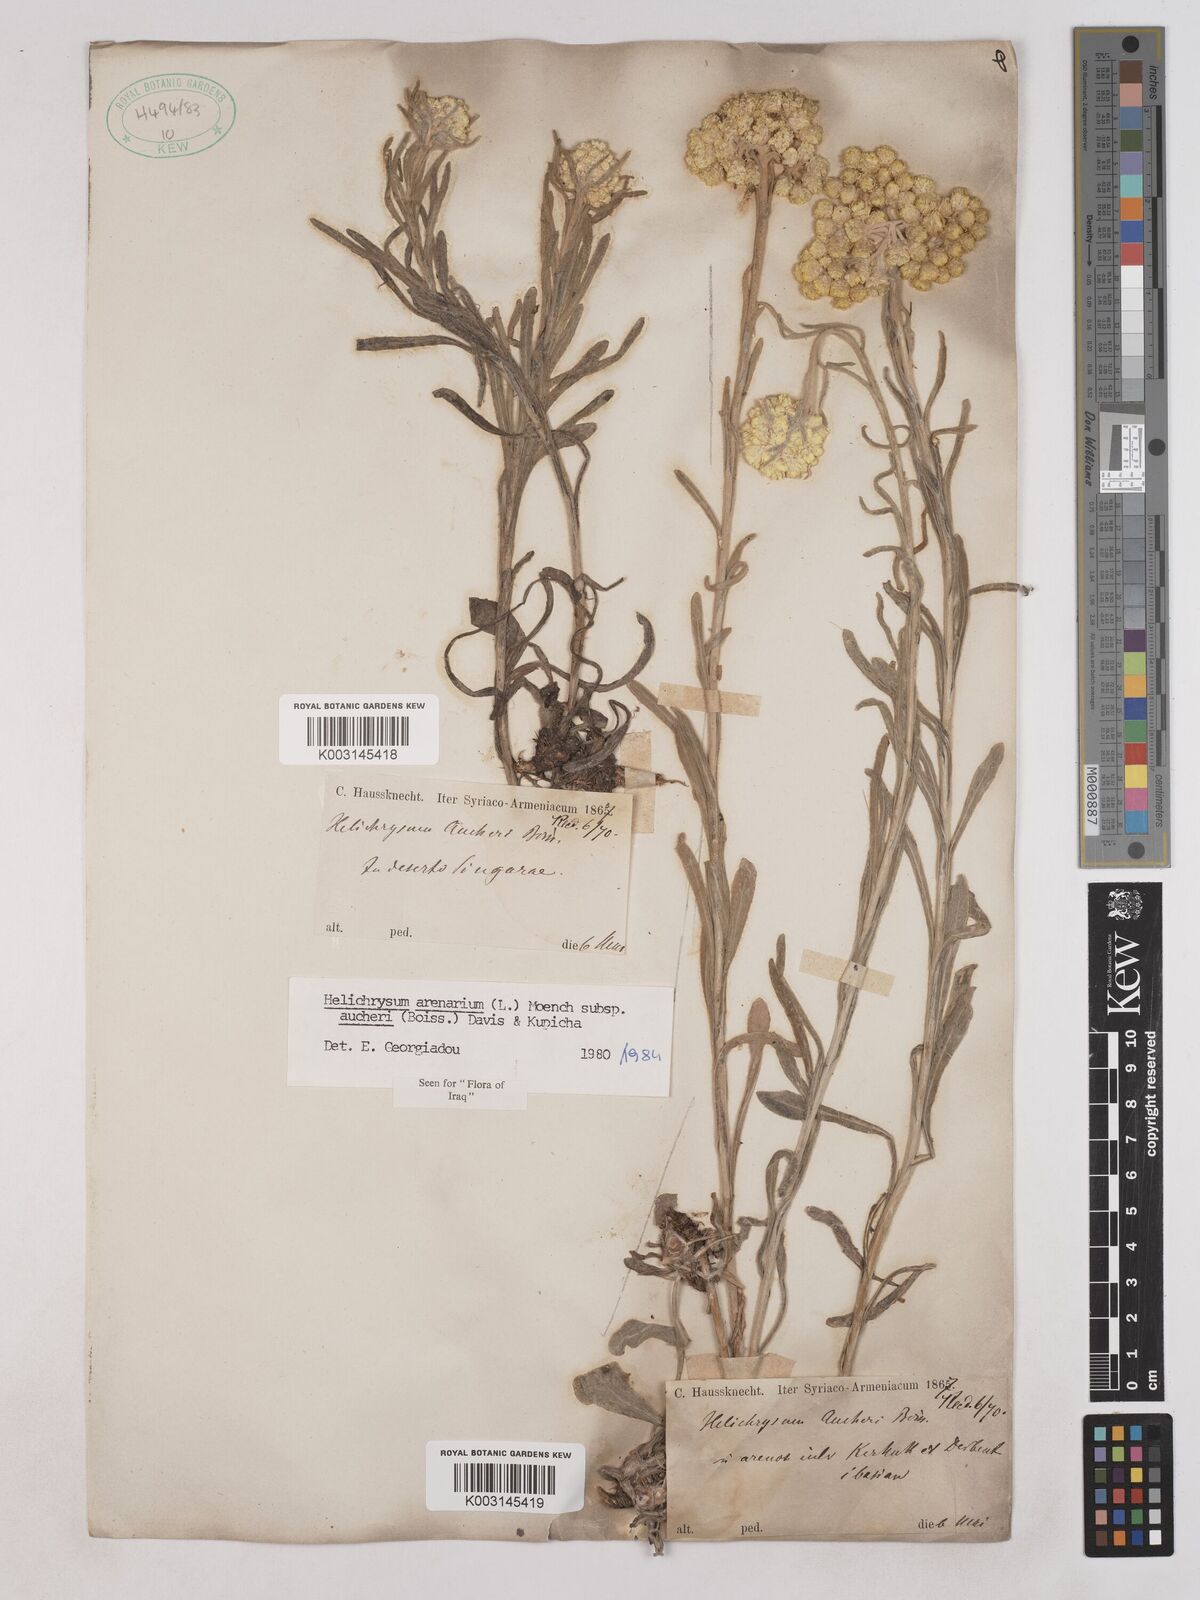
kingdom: Plantae
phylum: Tracheophyta
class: Magnoliopsida
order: Asterales
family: Asteraceae
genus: Helichrysum
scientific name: Helichrysum arenarium
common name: Strawflower
